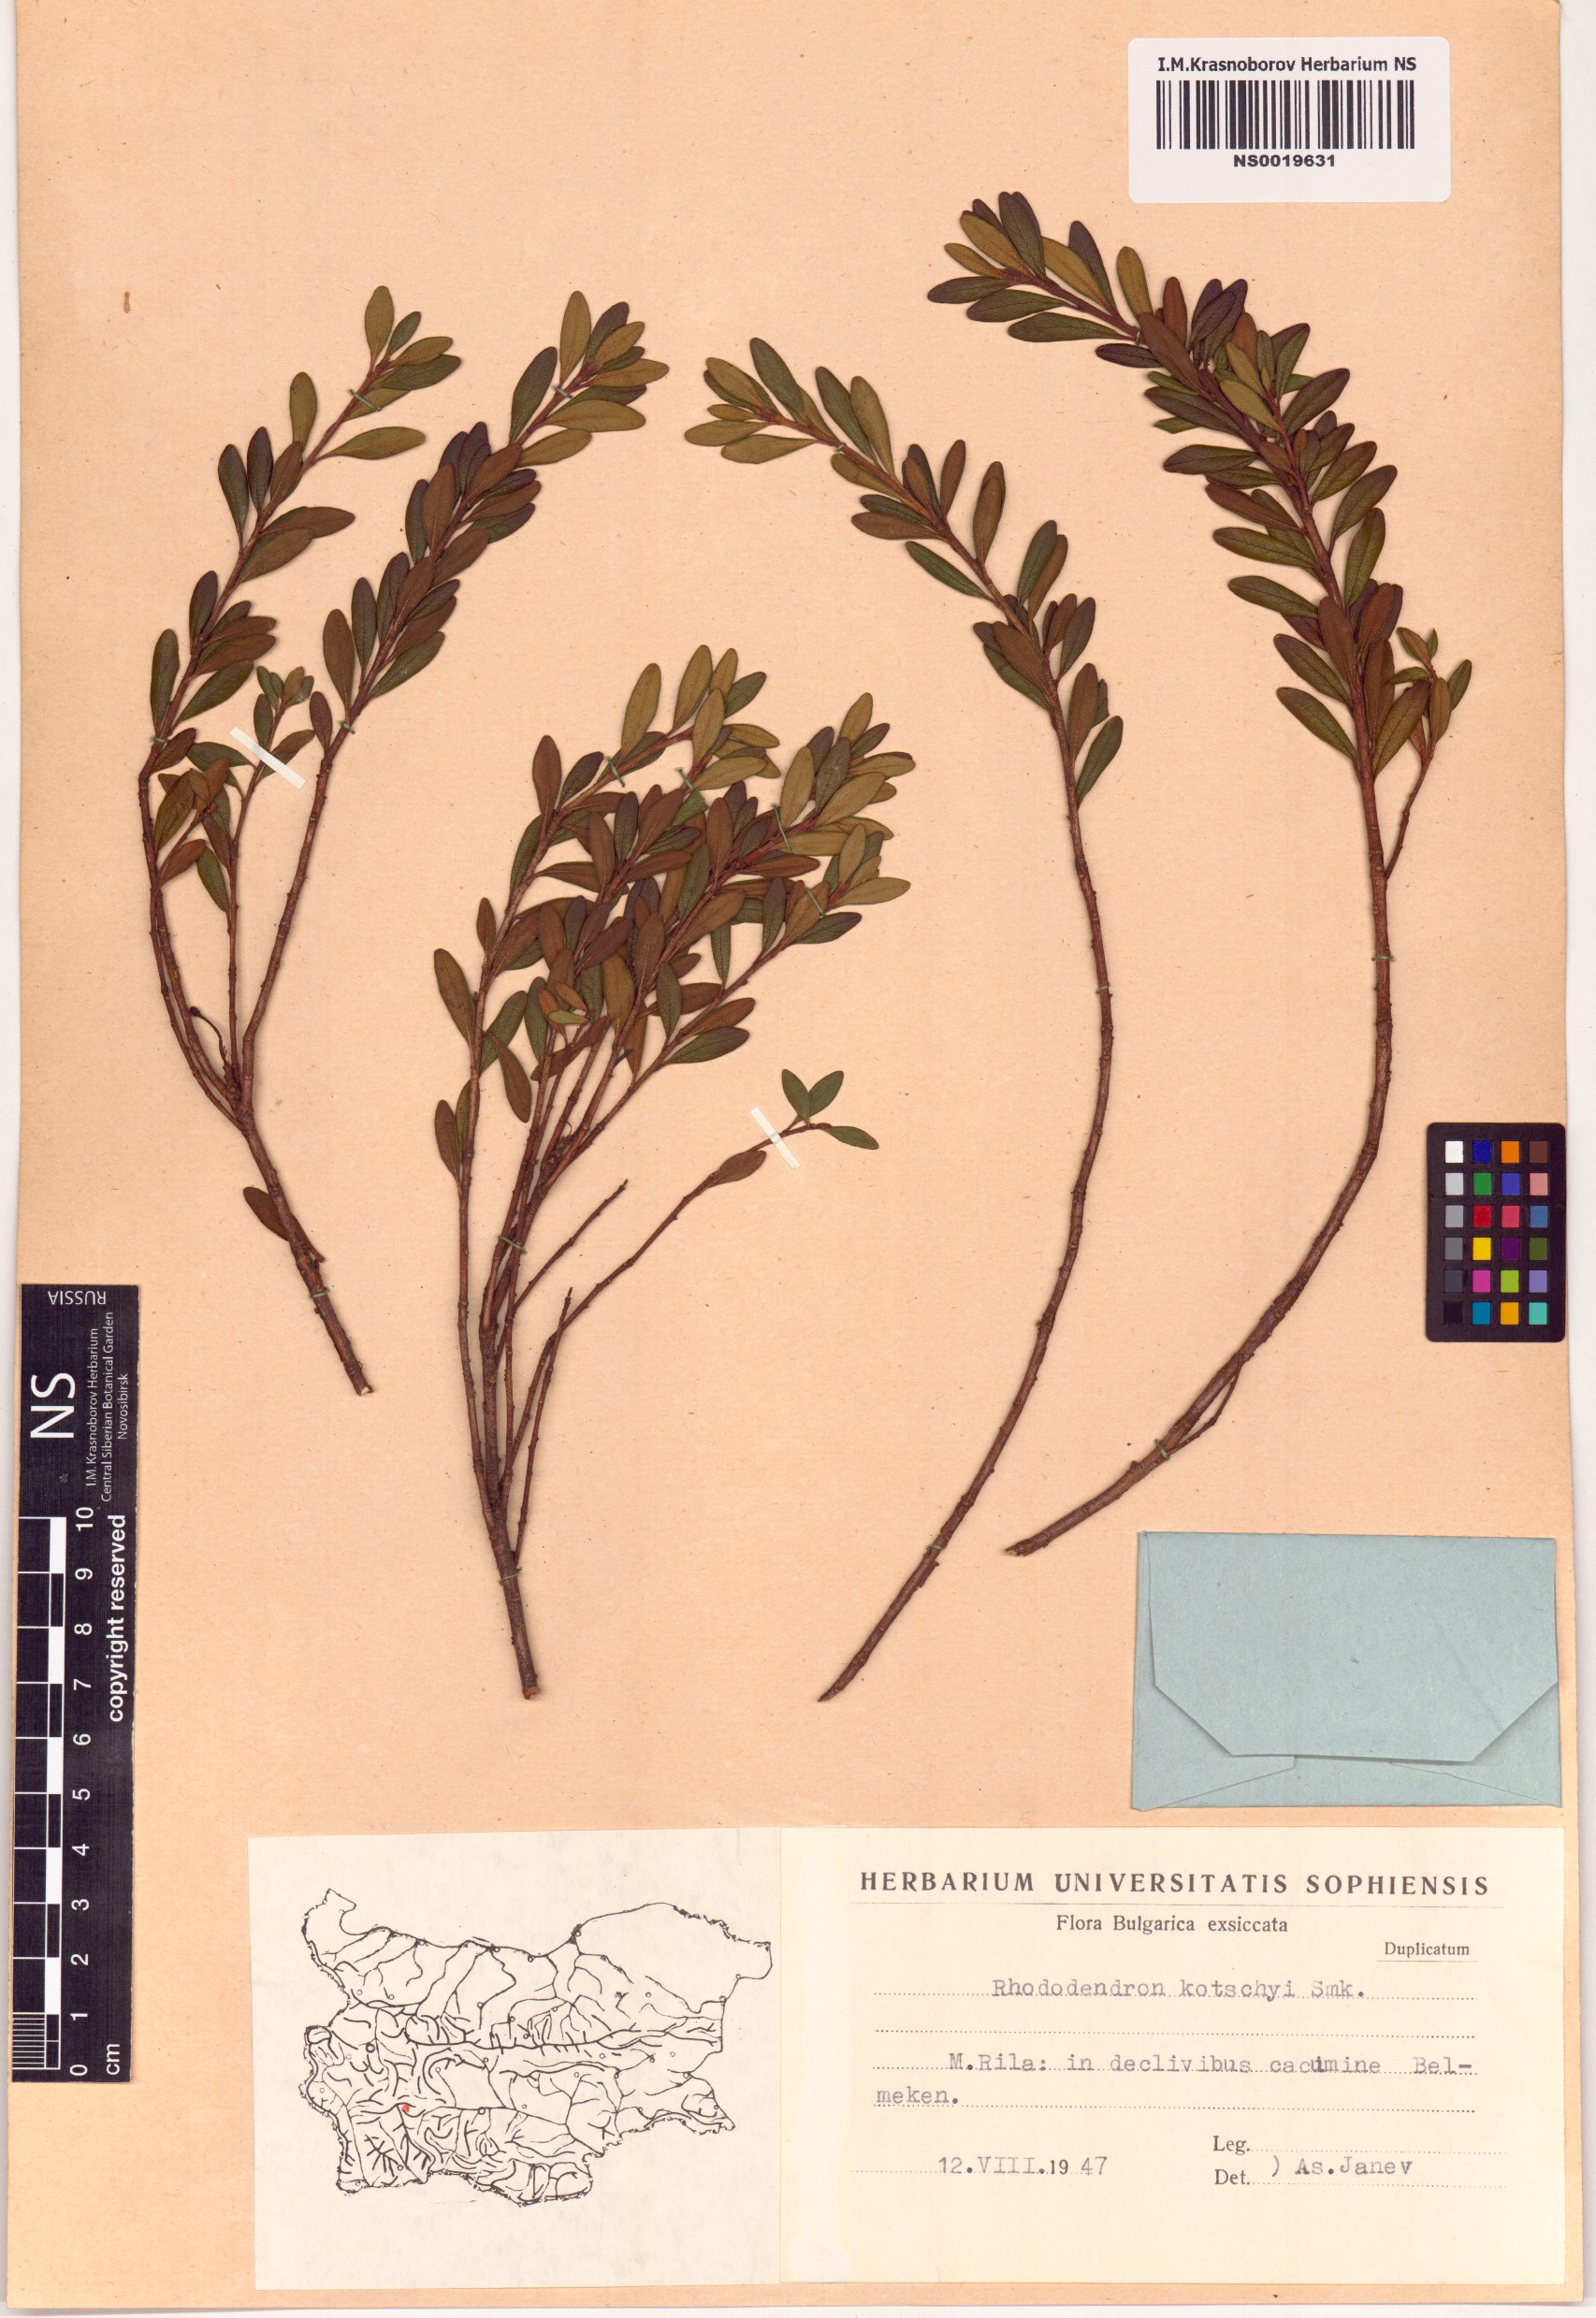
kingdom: Plantae
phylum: Tracheophyta
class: Magnoliopsida
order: Ericales
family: Ericaceae
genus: Rhododendron
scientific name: Rhododendron kotschyi
